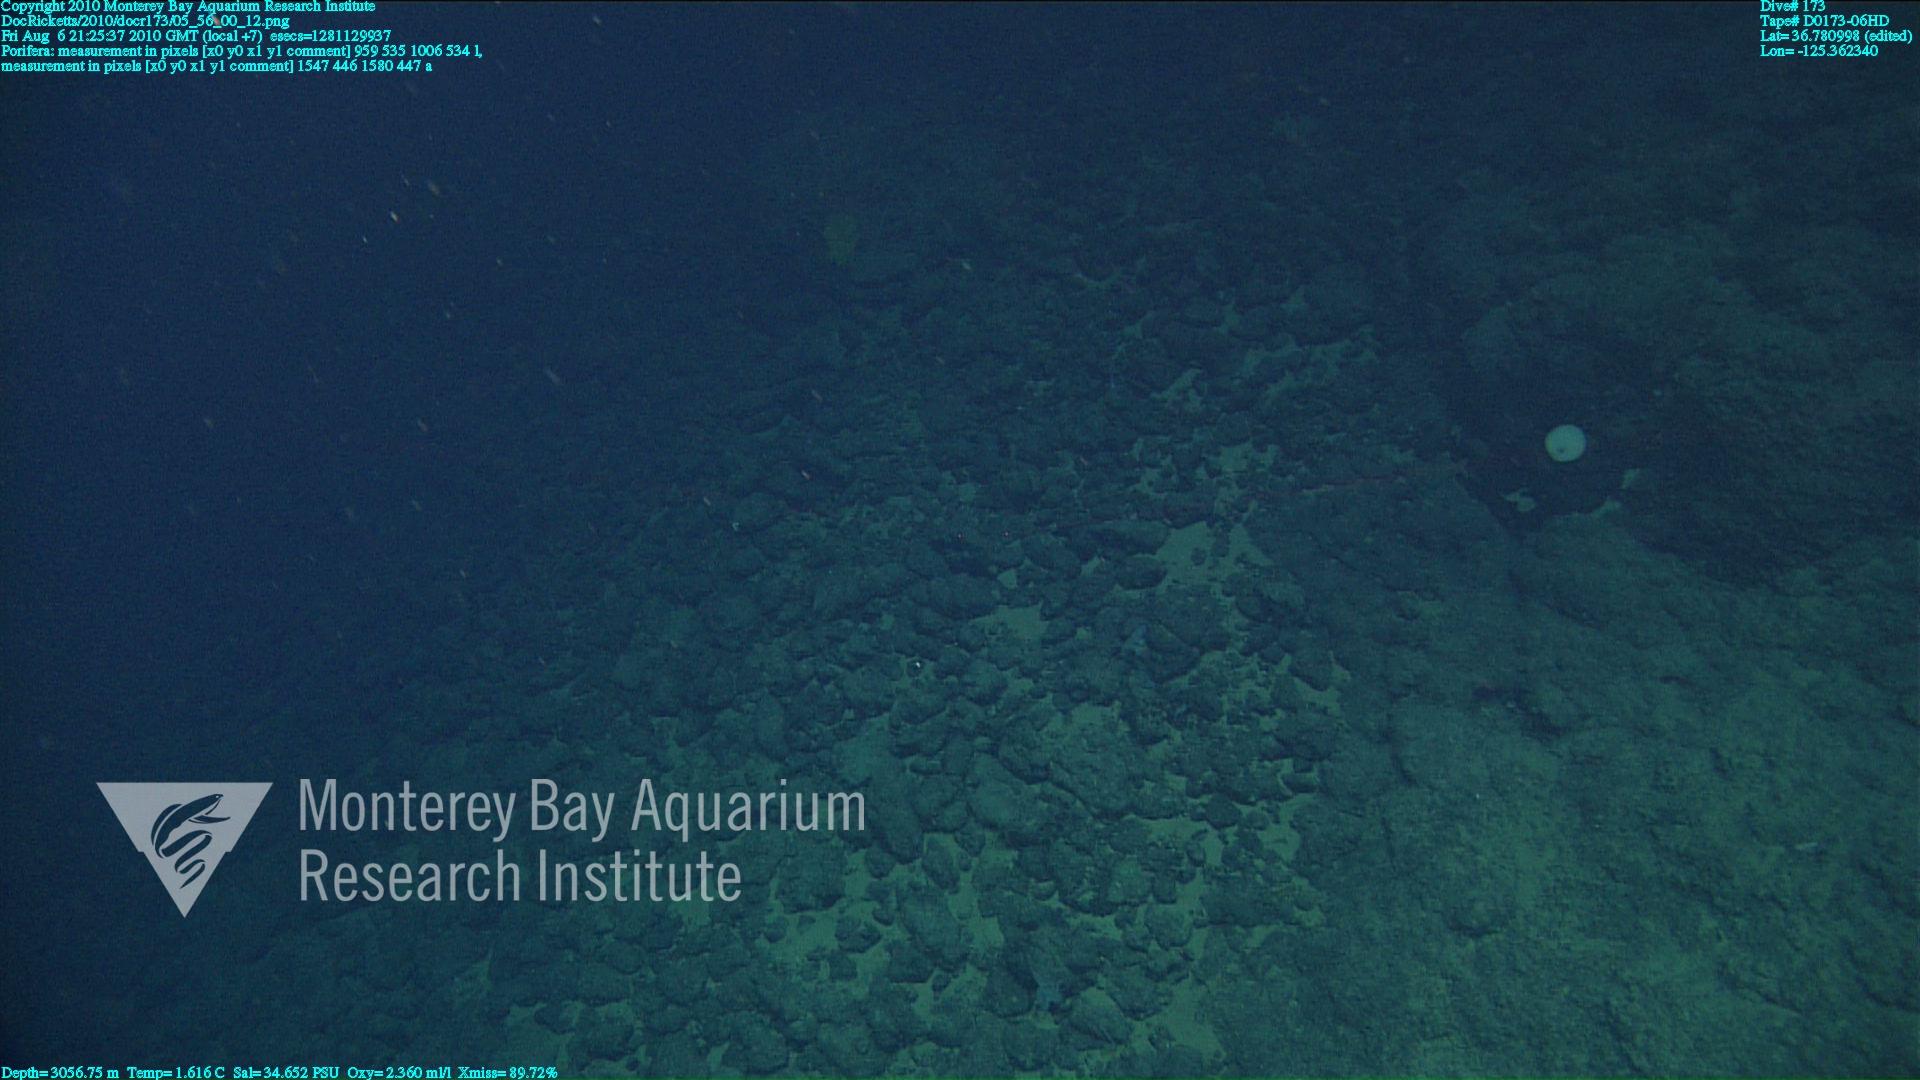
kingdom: Animalia
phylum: Porifera
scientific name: Porifera
